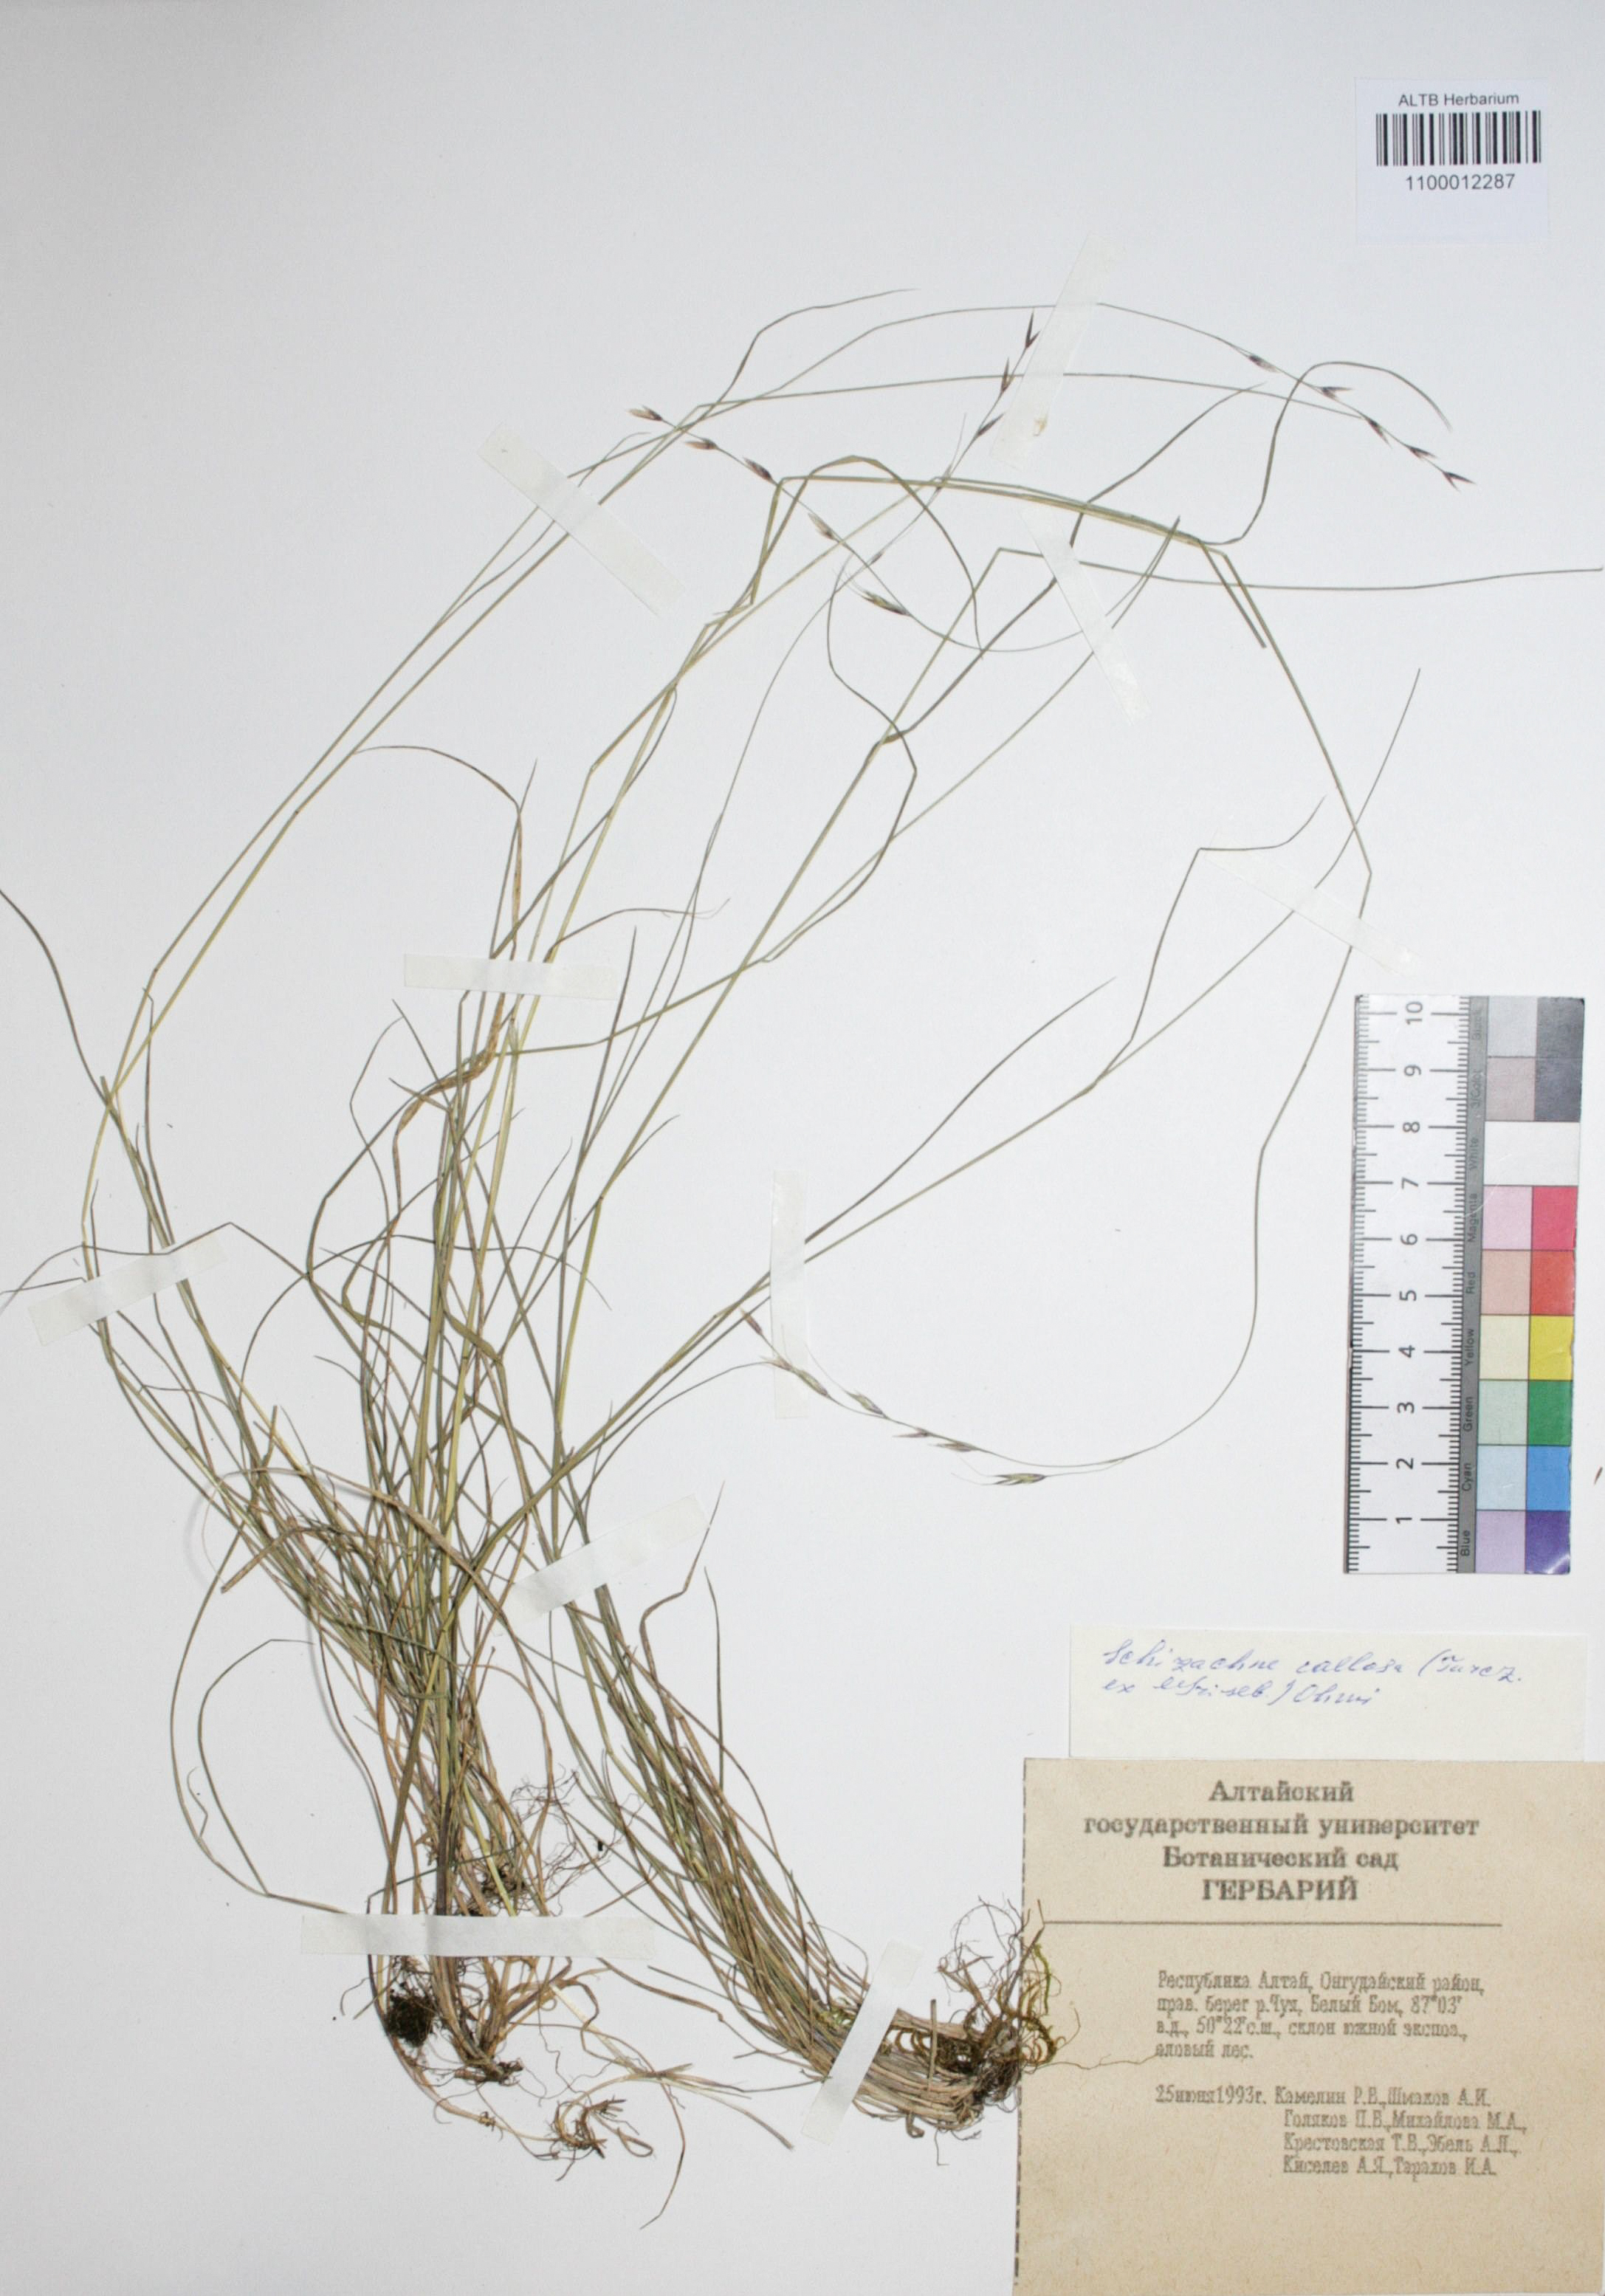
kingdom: Plantae
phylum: Tracheophyta
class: Liliopsida
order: Poales
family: Poaceae
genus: Schizachne
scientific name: Schizachne purpurascens
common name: False melic
